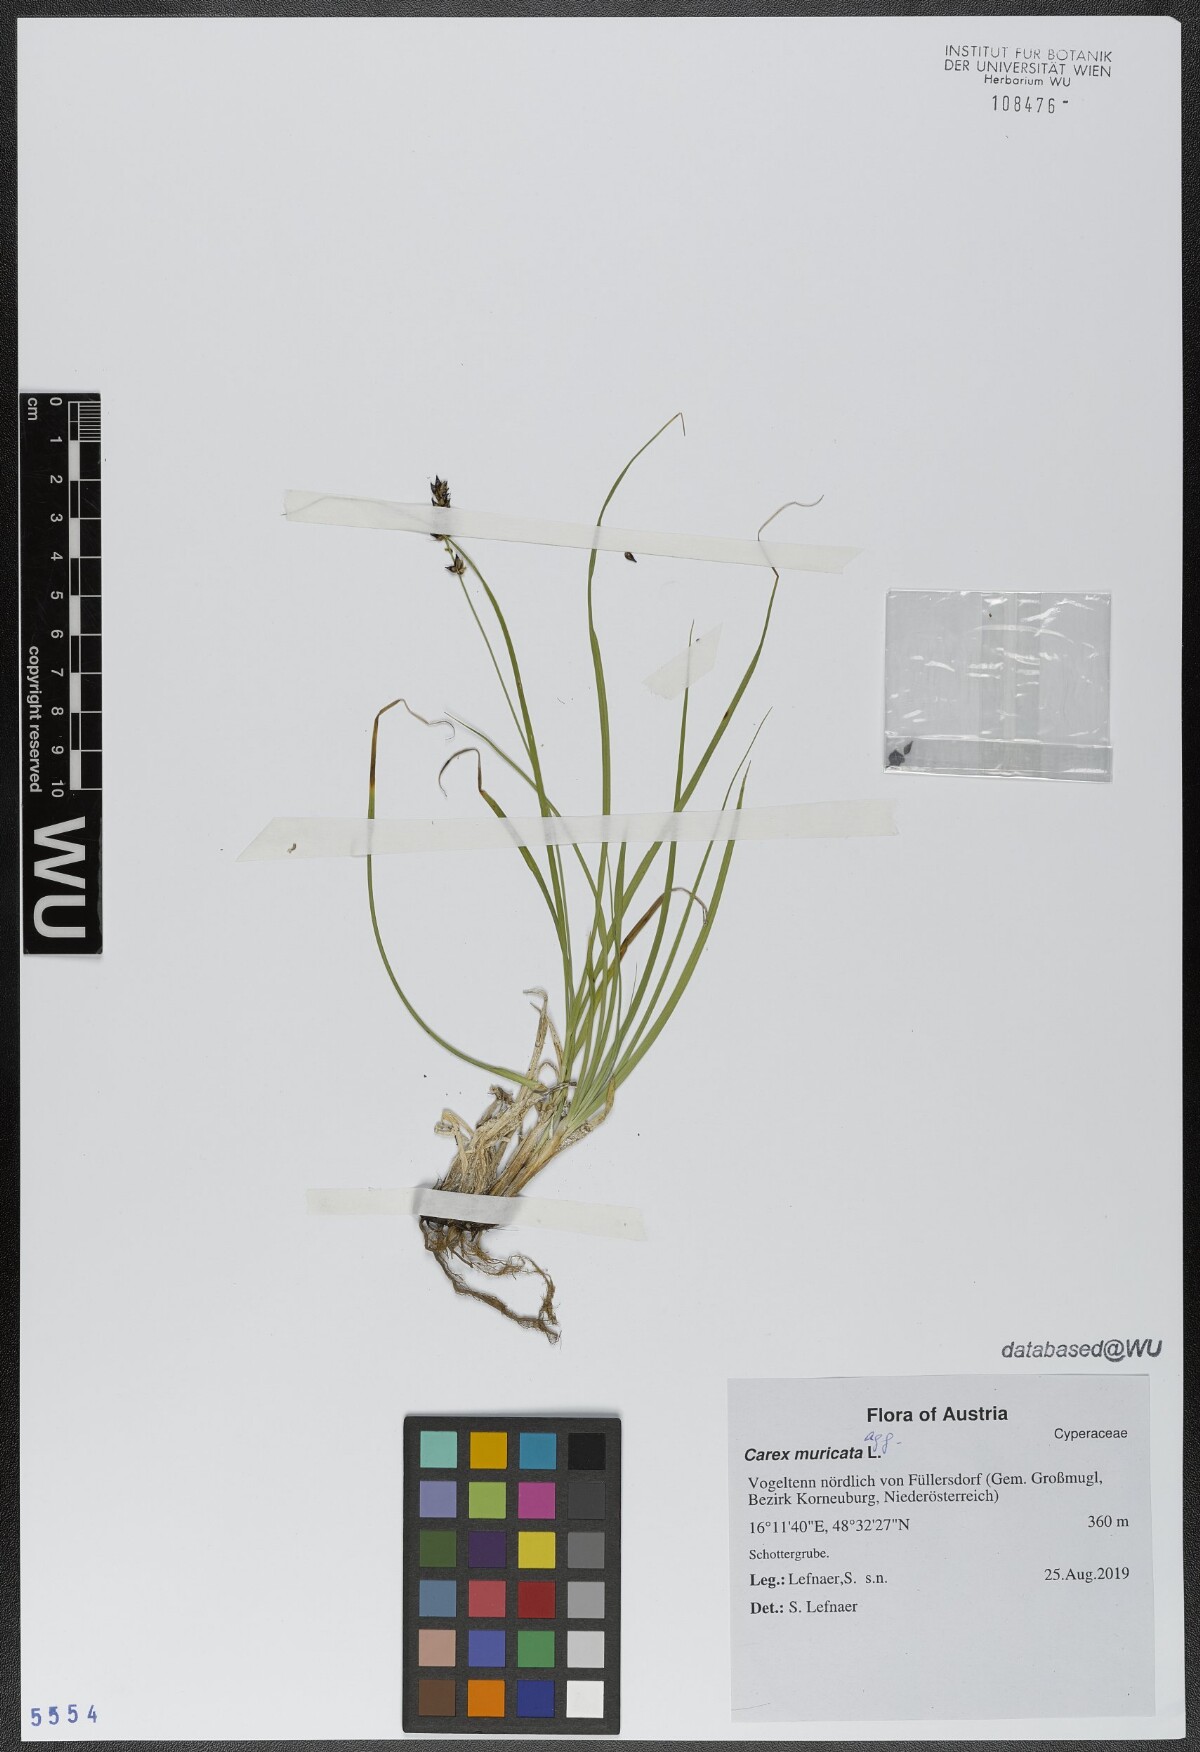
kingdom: Plantae
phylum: Tracheophyta
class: Liliopsida
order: Poales
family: Cyperaceae
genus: Carex
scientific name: Carex muricata
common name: Rough sedge
